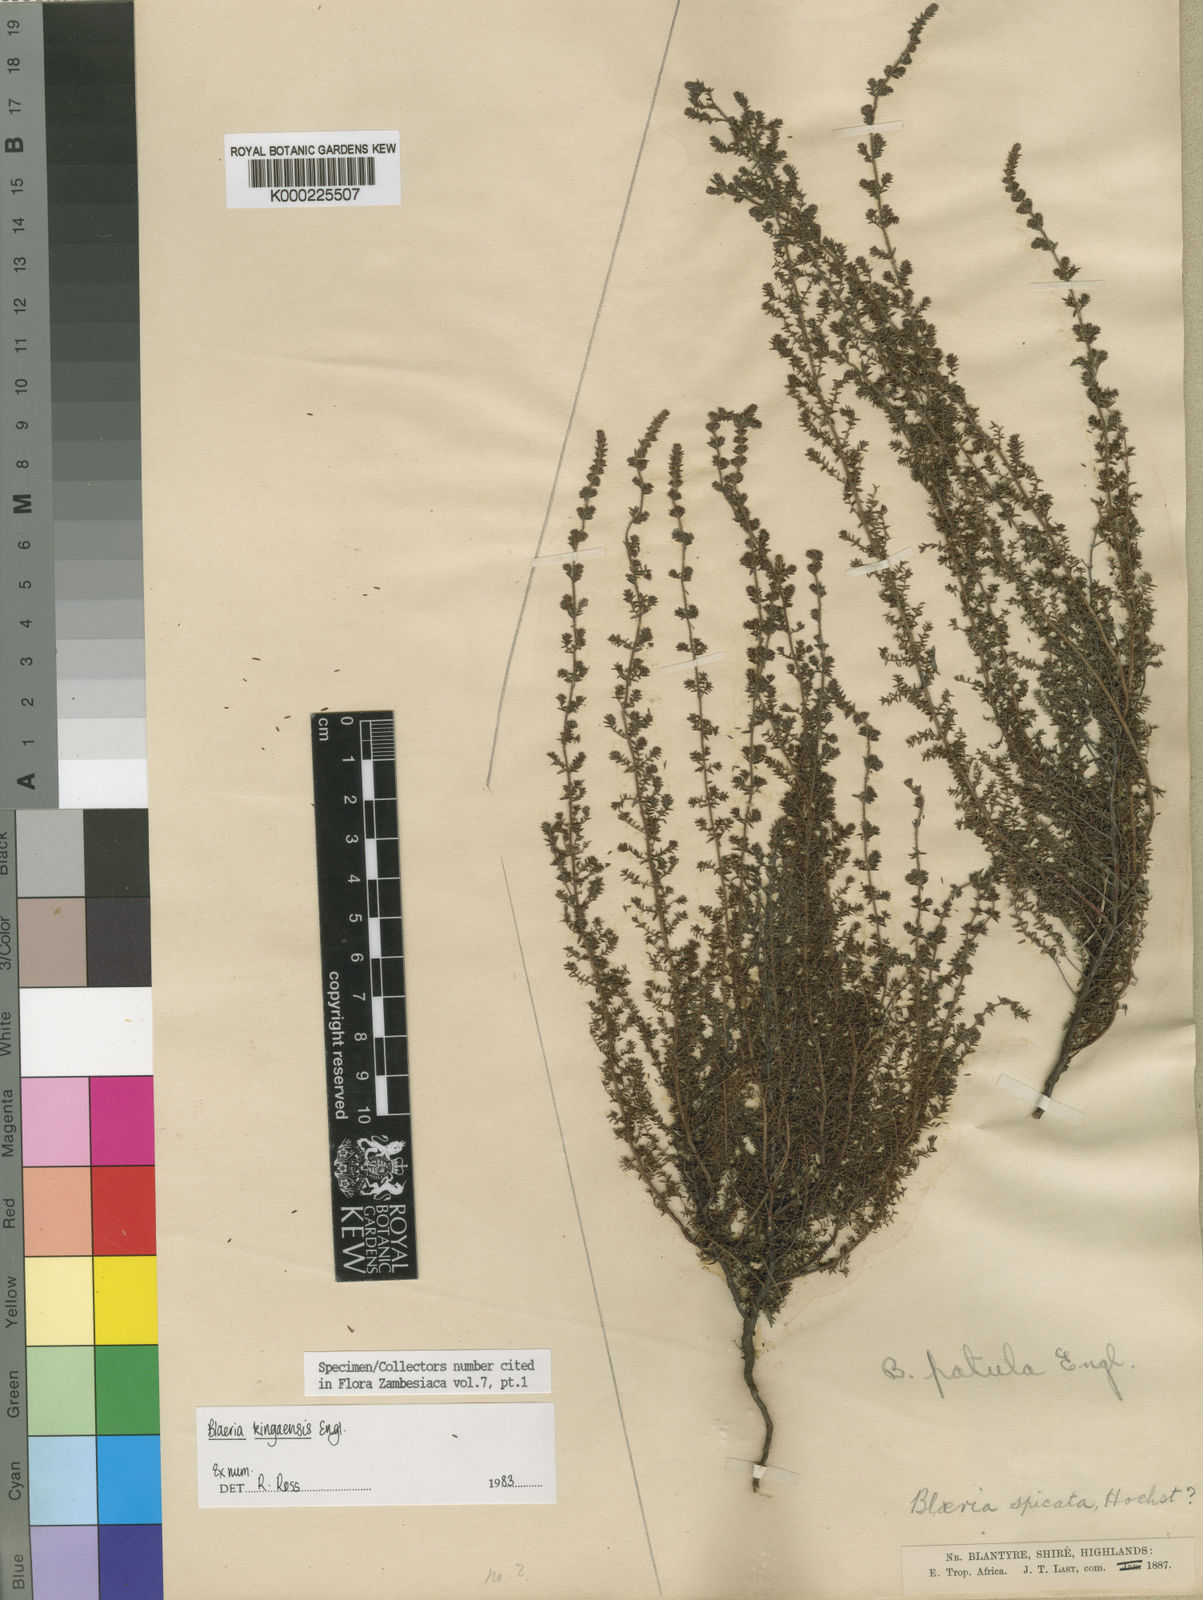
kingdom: Plantae
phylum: Tracheophyta
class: Magnoliopsida
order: Ericales
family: Ericaceae
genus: Erica
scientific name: Erica silvatica
